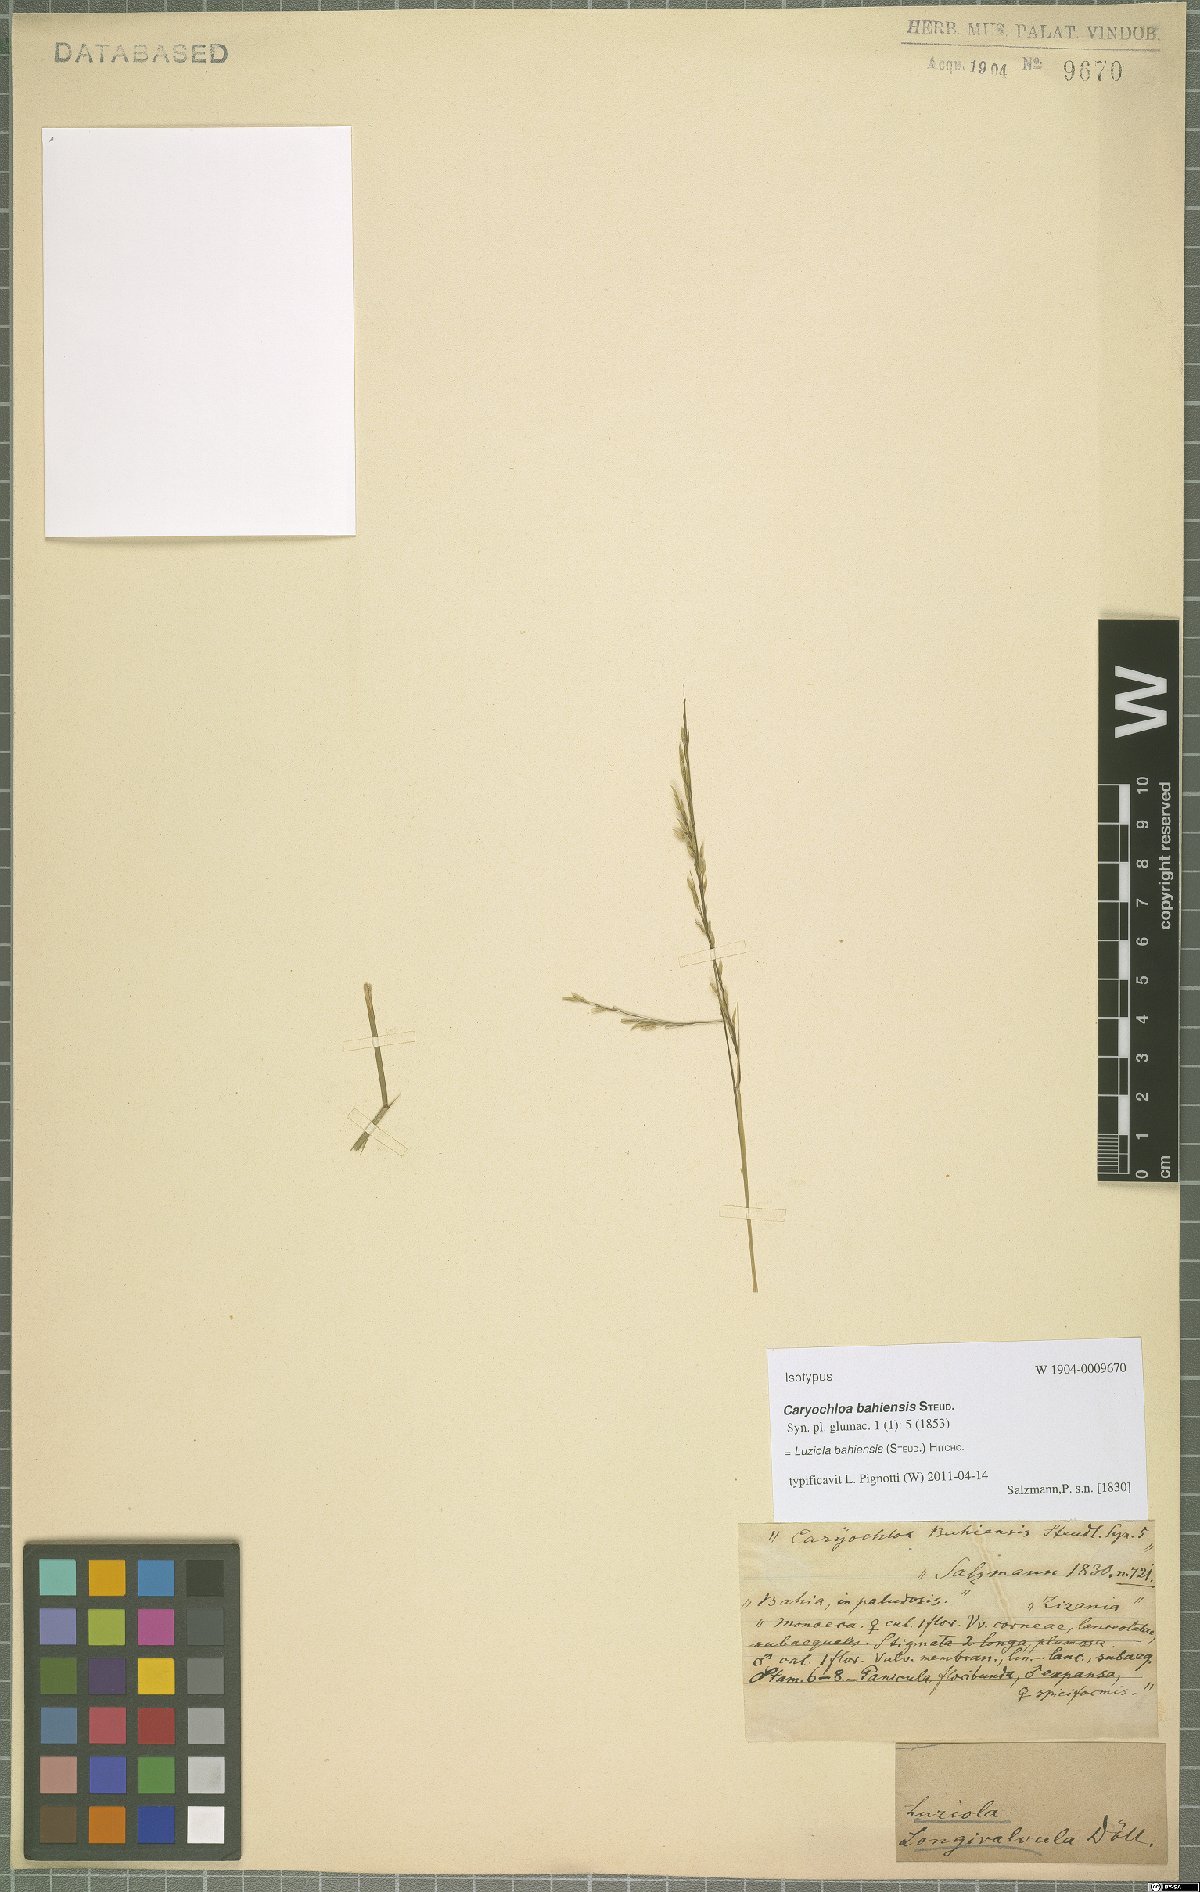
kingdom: Plantae
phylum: Tracheophyta
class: Liliopsida
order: Poales
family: Poaceae
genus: Luziola
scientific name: Luziola bahiensis
